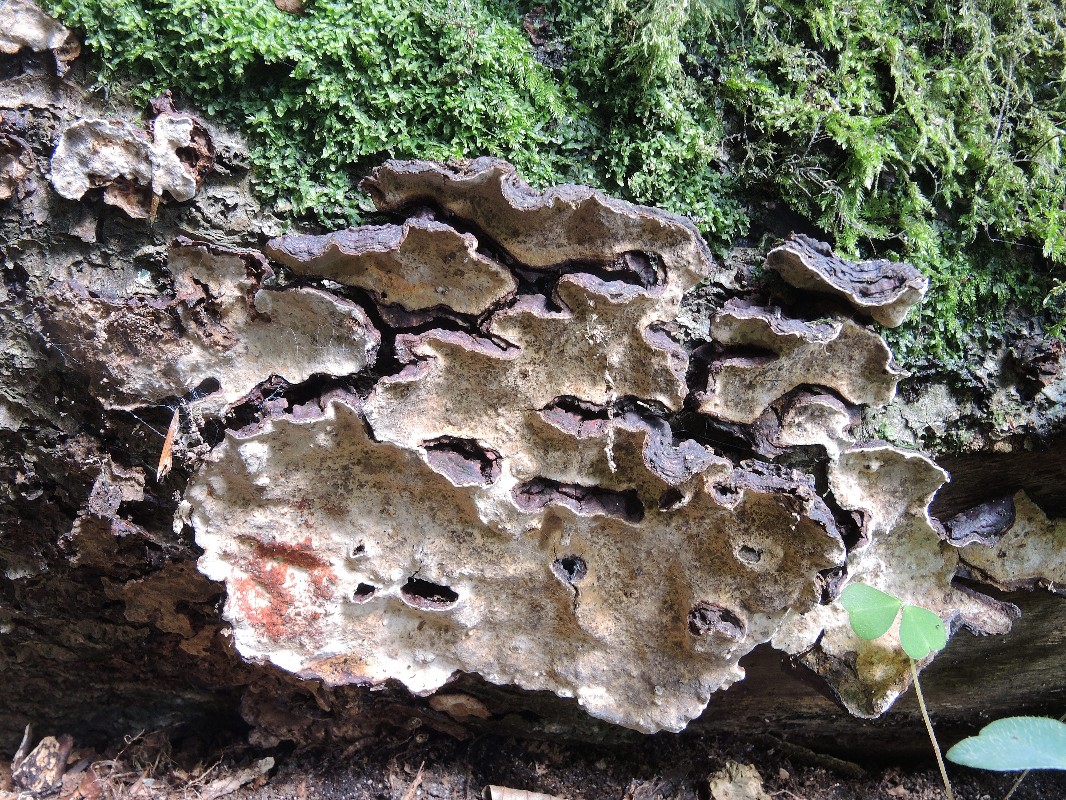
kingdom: Fungi
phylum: Basidiomycota
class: Agaricomycetes
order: Russulales
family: Stereaceae
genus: Stereum
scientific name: Stereum rugosum
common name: rynket lædersvamp
